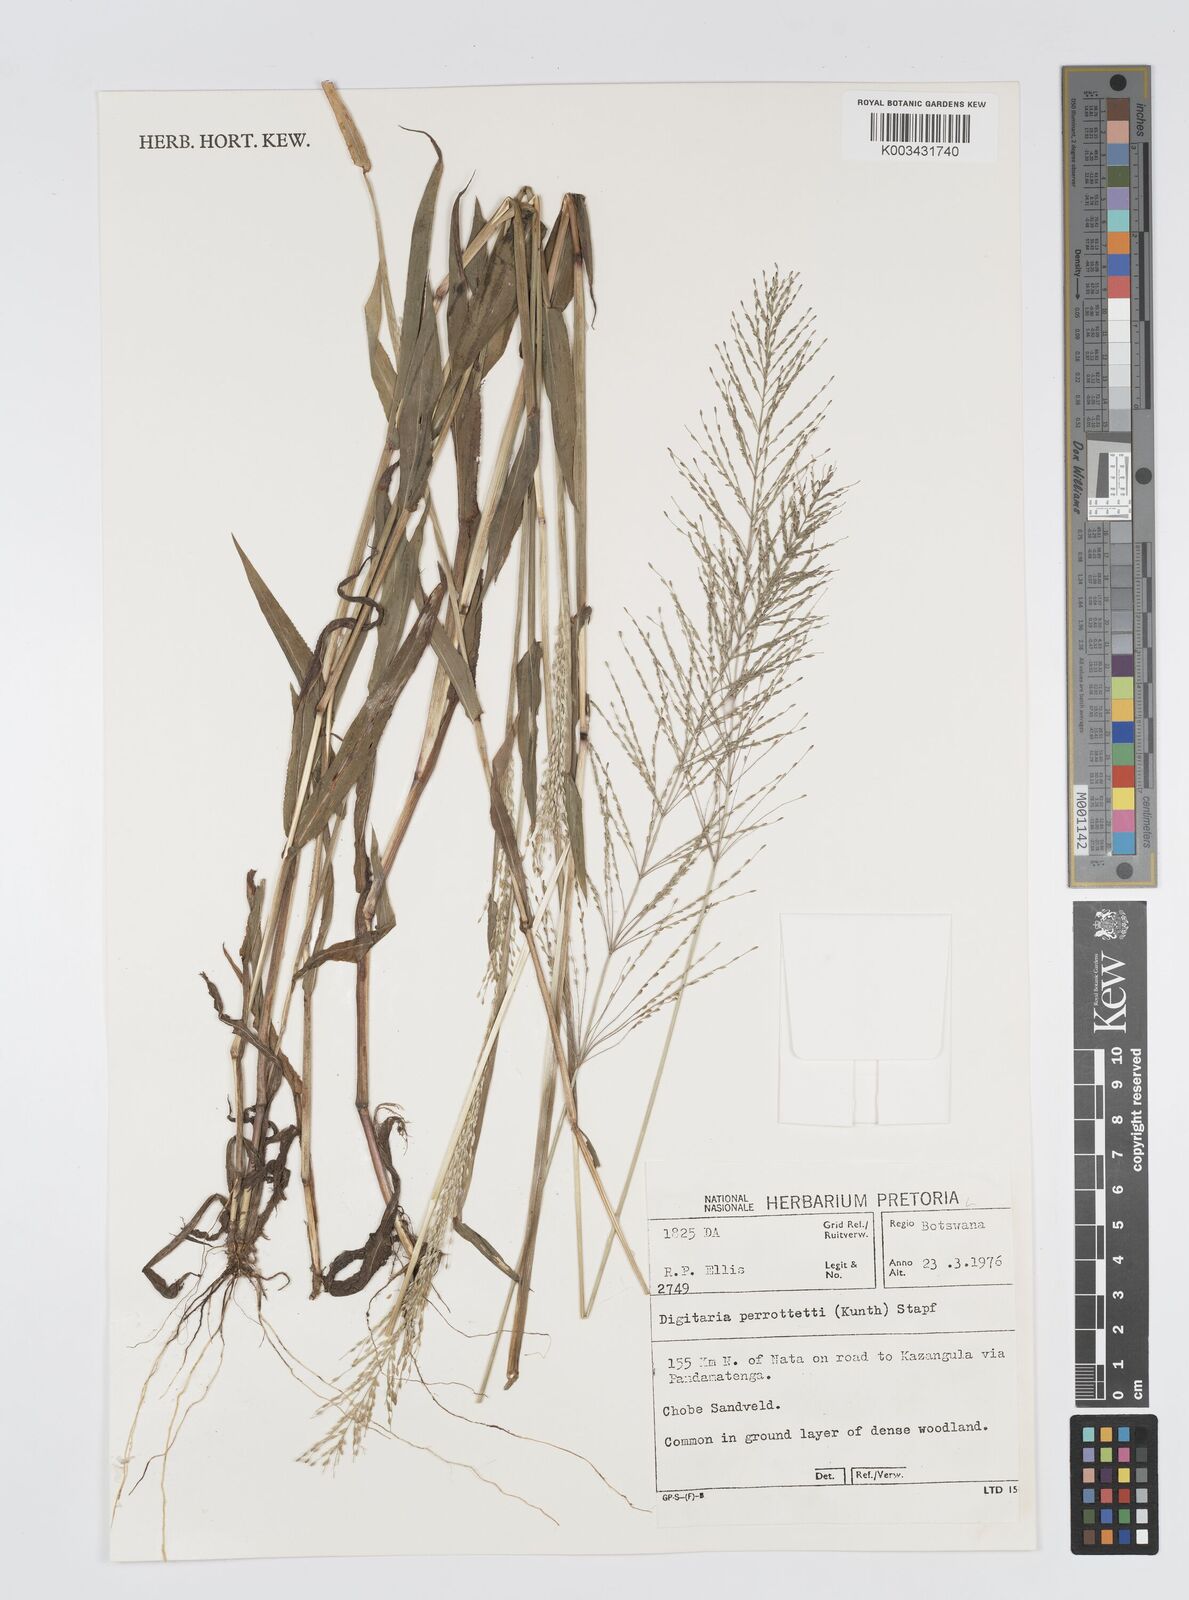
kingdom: Plantae
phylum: Tracheophyta
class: Liliopsida
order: Poales
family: Poaceae
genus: Digitaria
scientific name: Digitaria perrottetii
